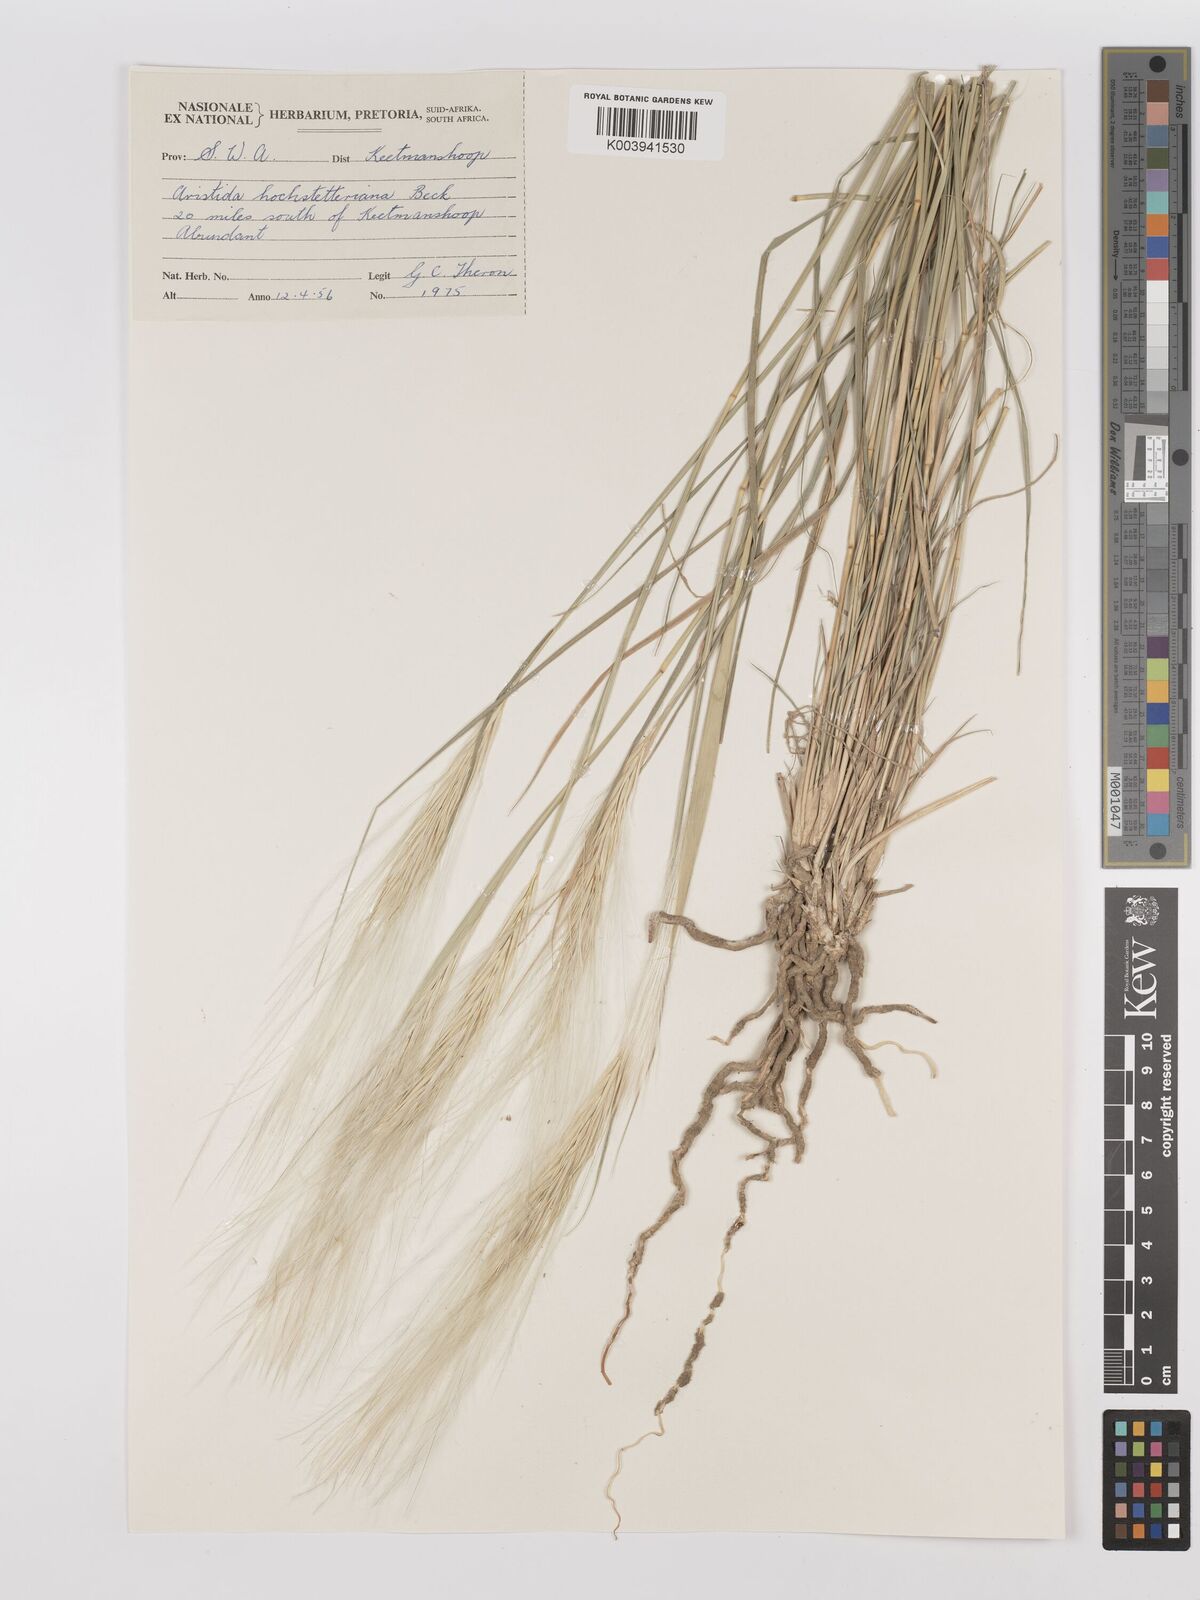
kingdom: Plantae
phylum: Tracheophyta
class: Liliopsida
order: Poales
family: Poaceae
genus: Stipagrostis
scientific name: Stipagrostis hochstetteriana
